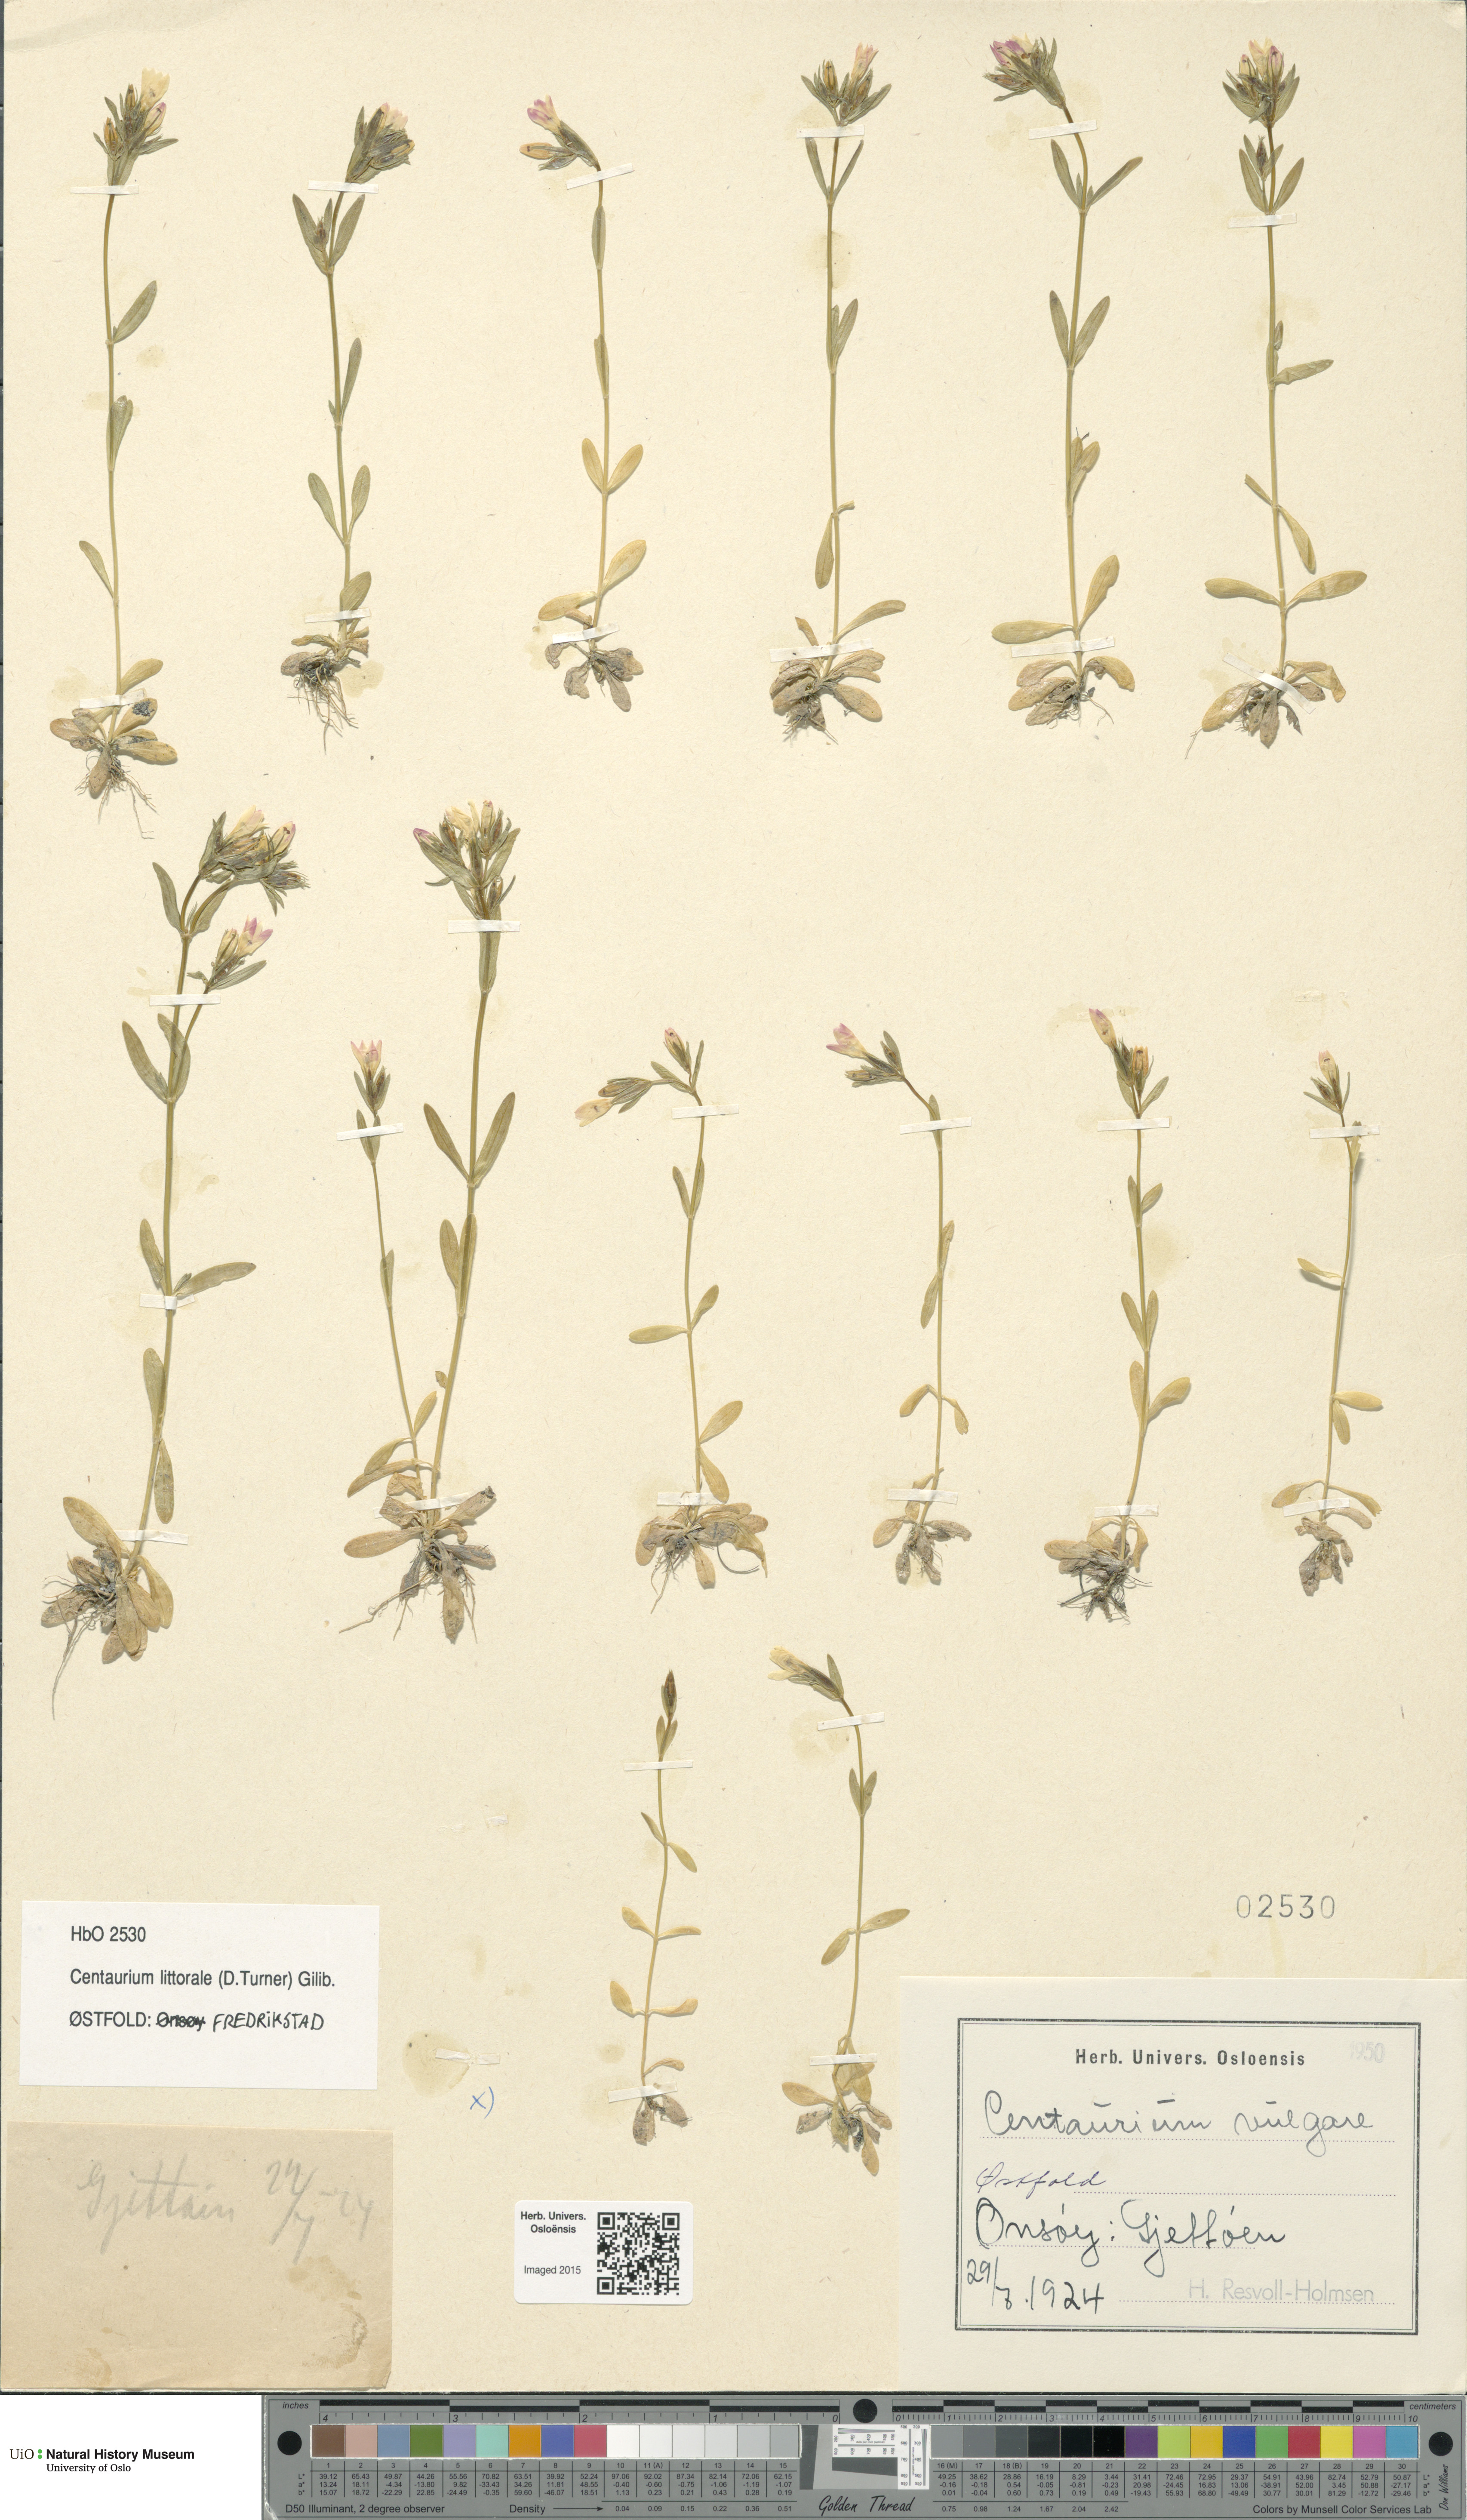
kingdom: Plantae
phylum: Tracheophyta
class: Magnoliopsida
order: Gentianales
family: Gentianaceae
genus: Centaurium
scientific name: Centaurium littorale
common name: Seaside centaury
